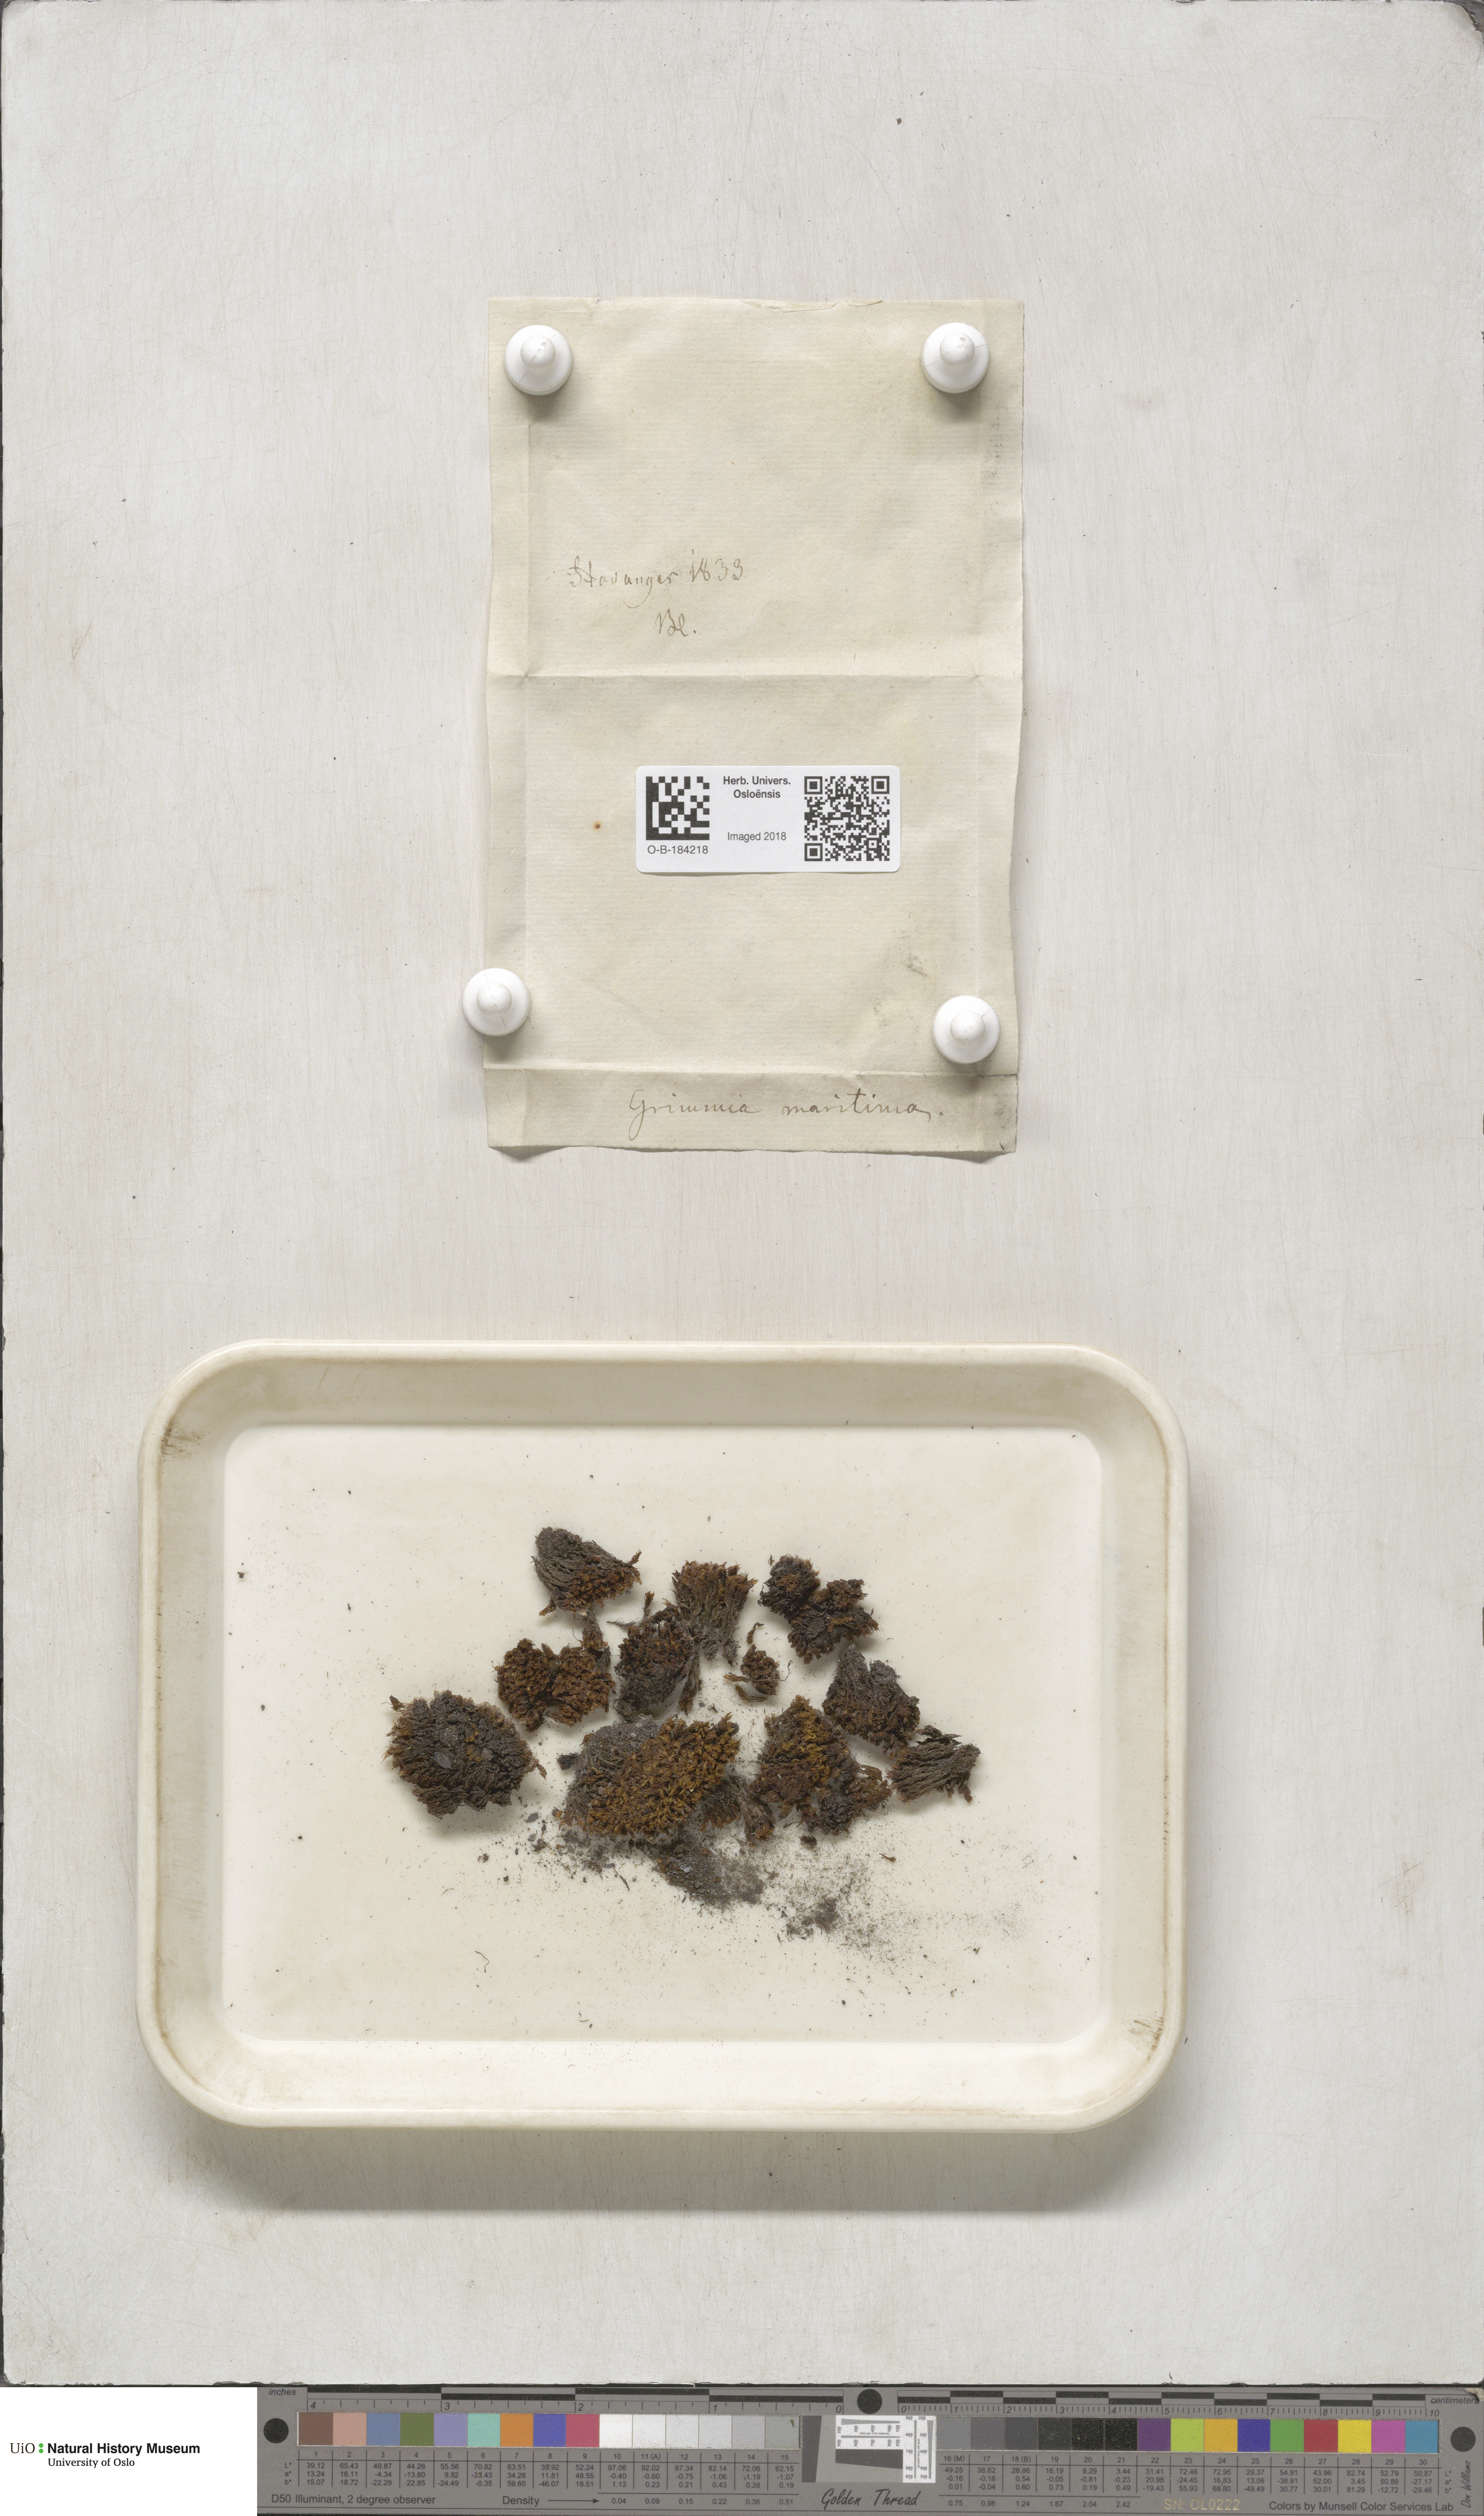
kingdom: Plantae
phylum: Bryophyta
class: Bryopsida
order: Grimmiales
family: Grimmiaceae
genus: Schistidium
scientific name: Schistidium maritimum
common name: Seaside bloom moss
